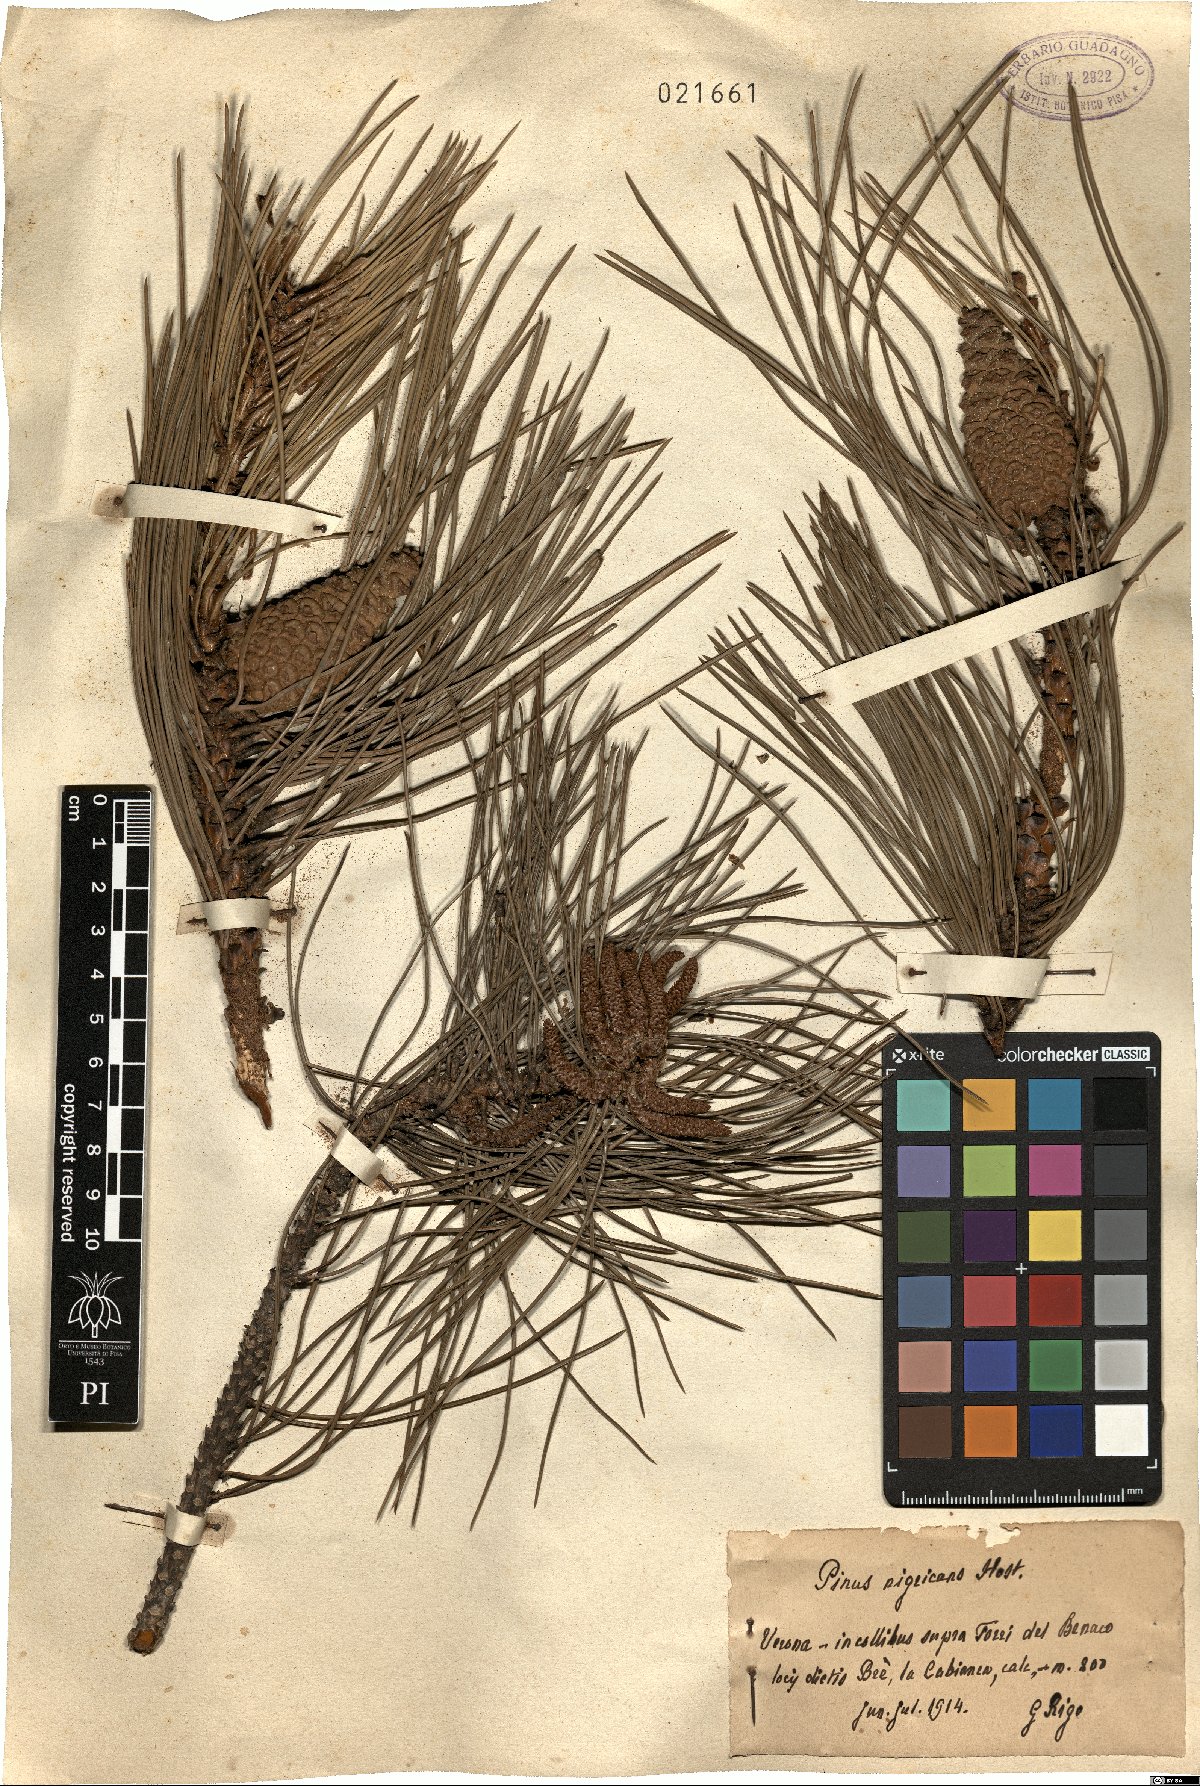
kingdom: Plantae
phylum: Tracheophyta
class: Pinopsida
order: Pinales
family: Pinaceae
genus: Pinus
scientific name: Pinus nigra
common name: Austrian pine
